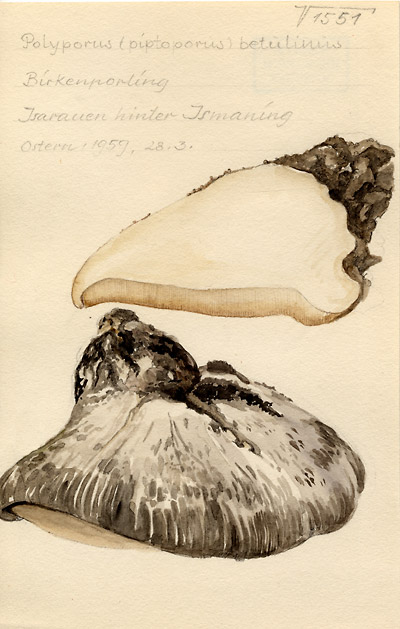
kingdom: Fungi
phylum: Basidiomycota
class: Agaricomycetes
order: Polyporales
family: Fomitopsidaceae
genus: Fomitopsis
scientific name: Fomitopsis betulina
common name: Birch polypore
